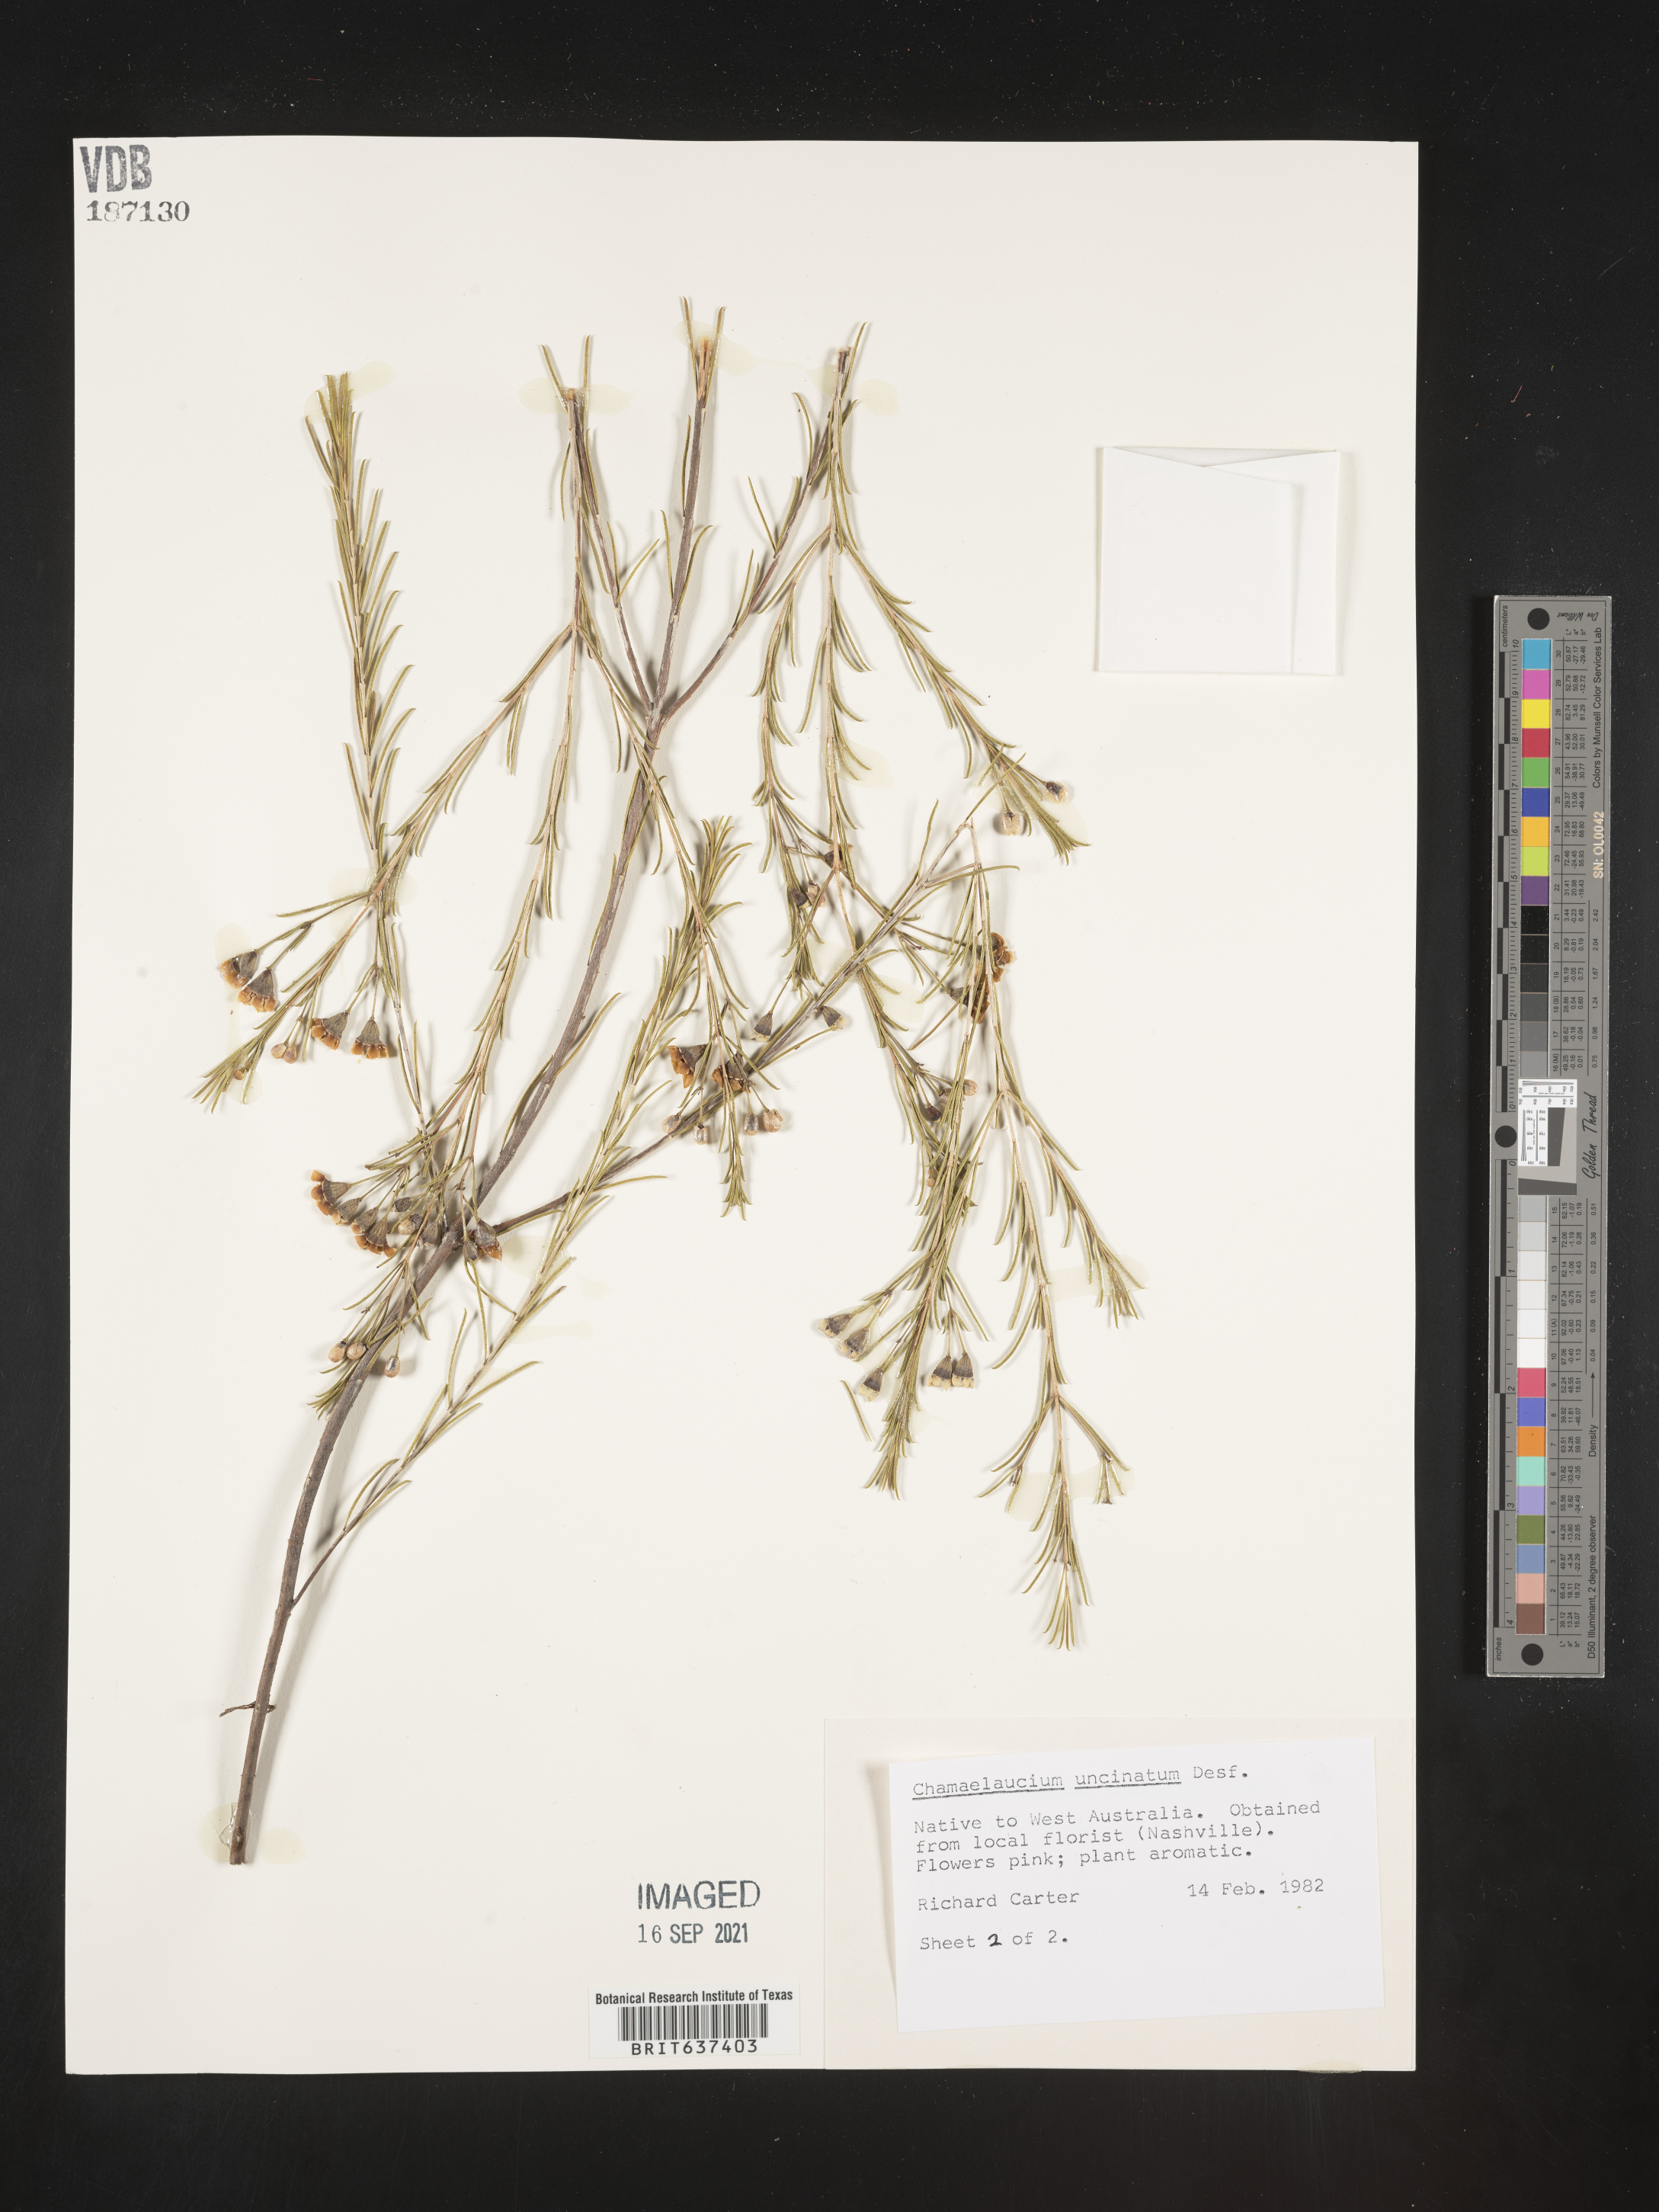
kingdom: Plantae
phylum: Tracheophyta
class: Magnoliopsida
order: Myrtales
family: Myrtaceae
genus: Chamaelaucium
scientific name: Chamaelaucium
